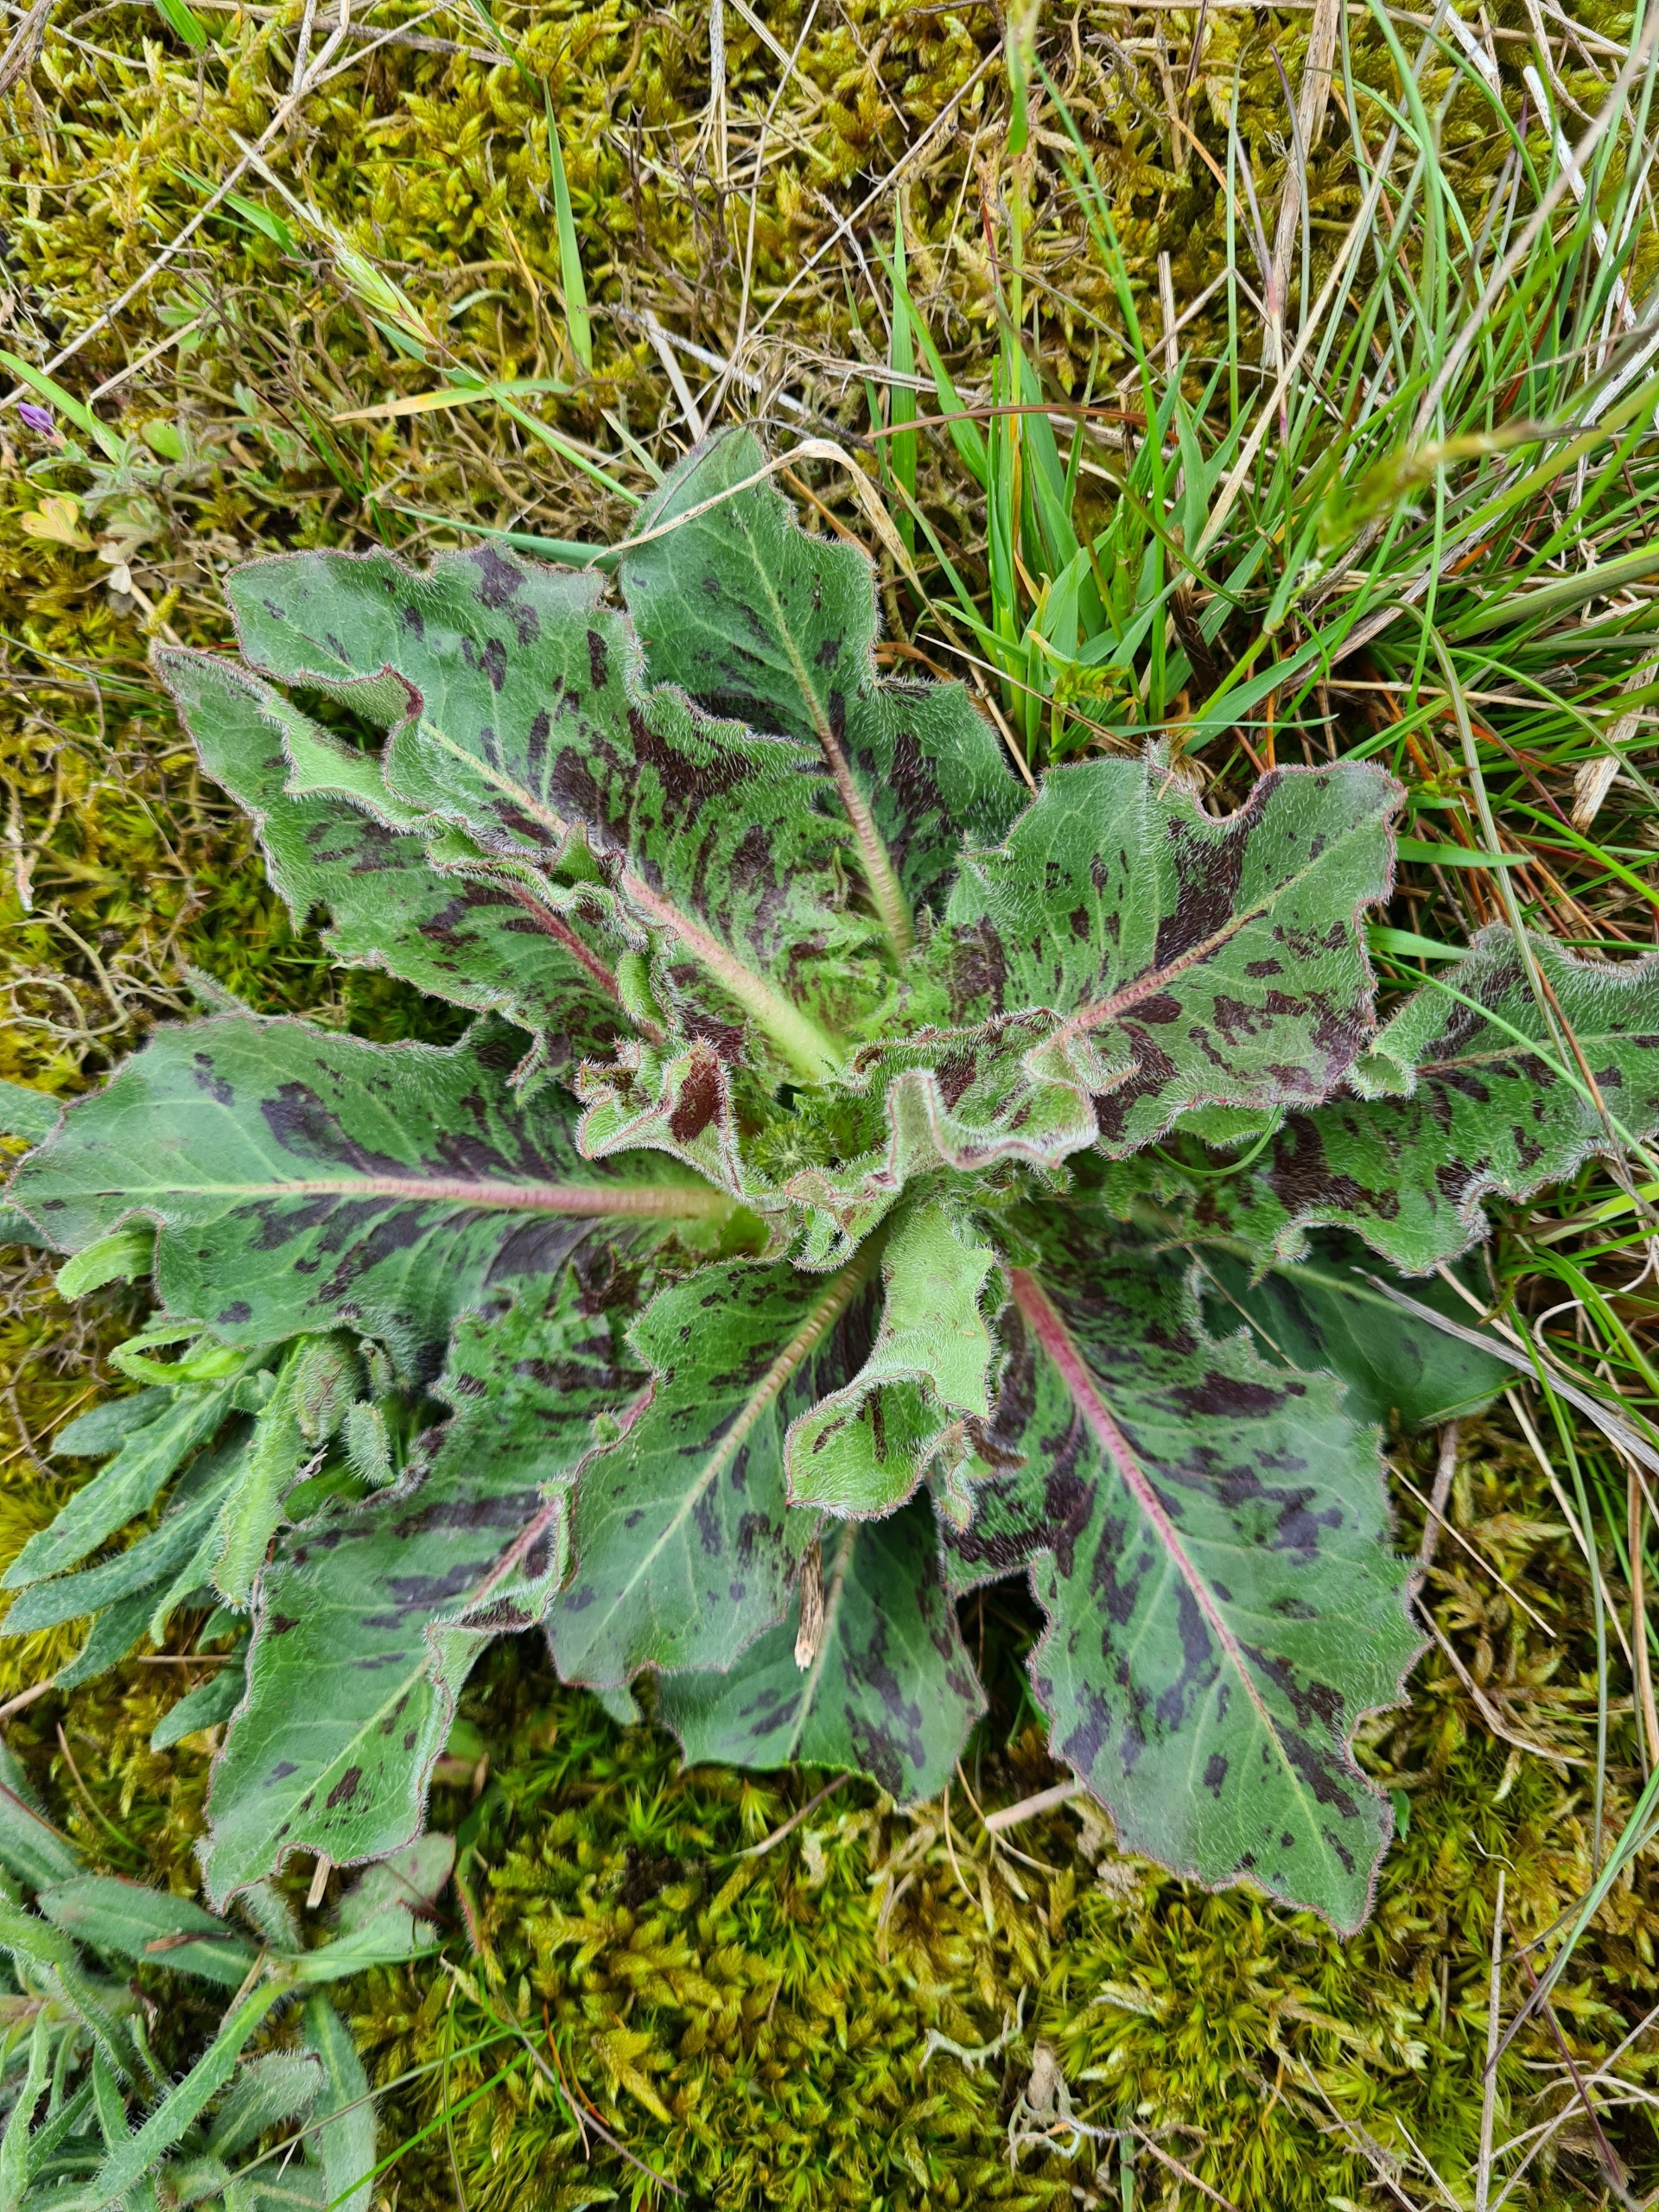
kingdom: Plantae
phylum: Tracheophyta
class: Magnoliopsida
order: Asterales
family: Asteraceae
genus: Trommsdorffia
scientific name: Trommsdorffia maculata
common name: Plettet kongepen
